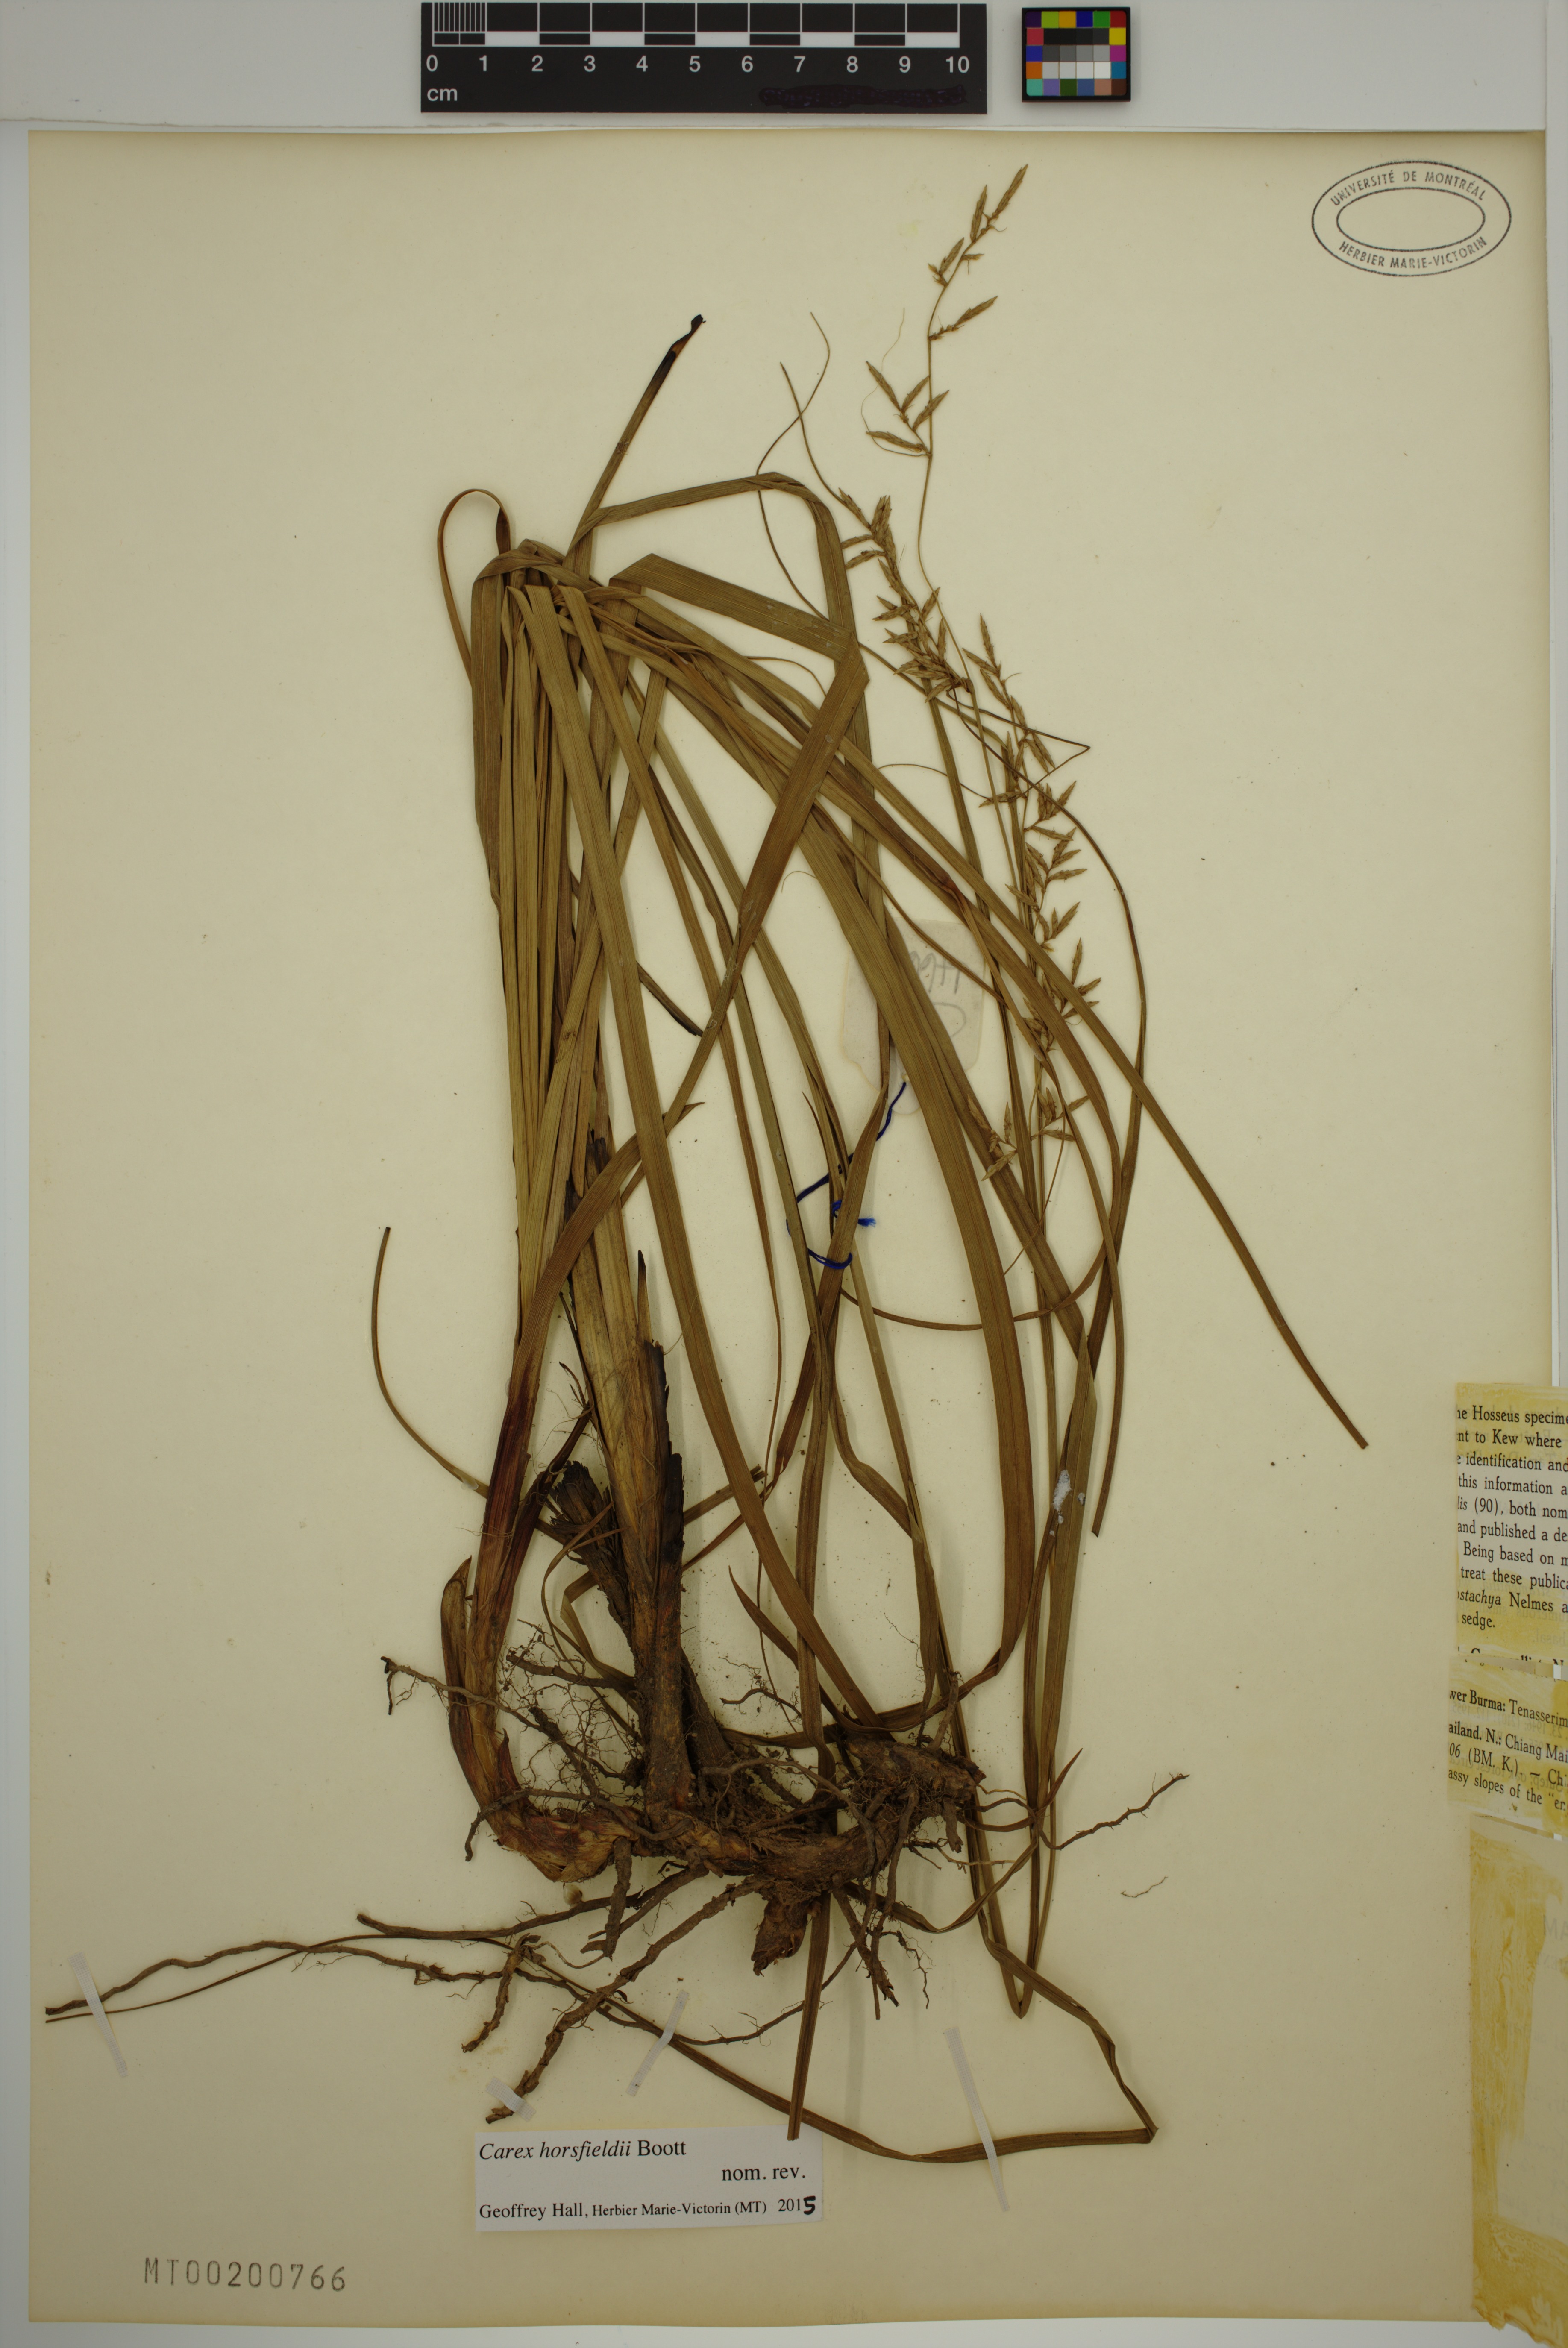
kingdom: Plantae
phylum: Tracheophyta
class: Liliopsida
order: Poales
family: Cyperaceae
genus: Carex
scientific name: Carex horsfieldii
